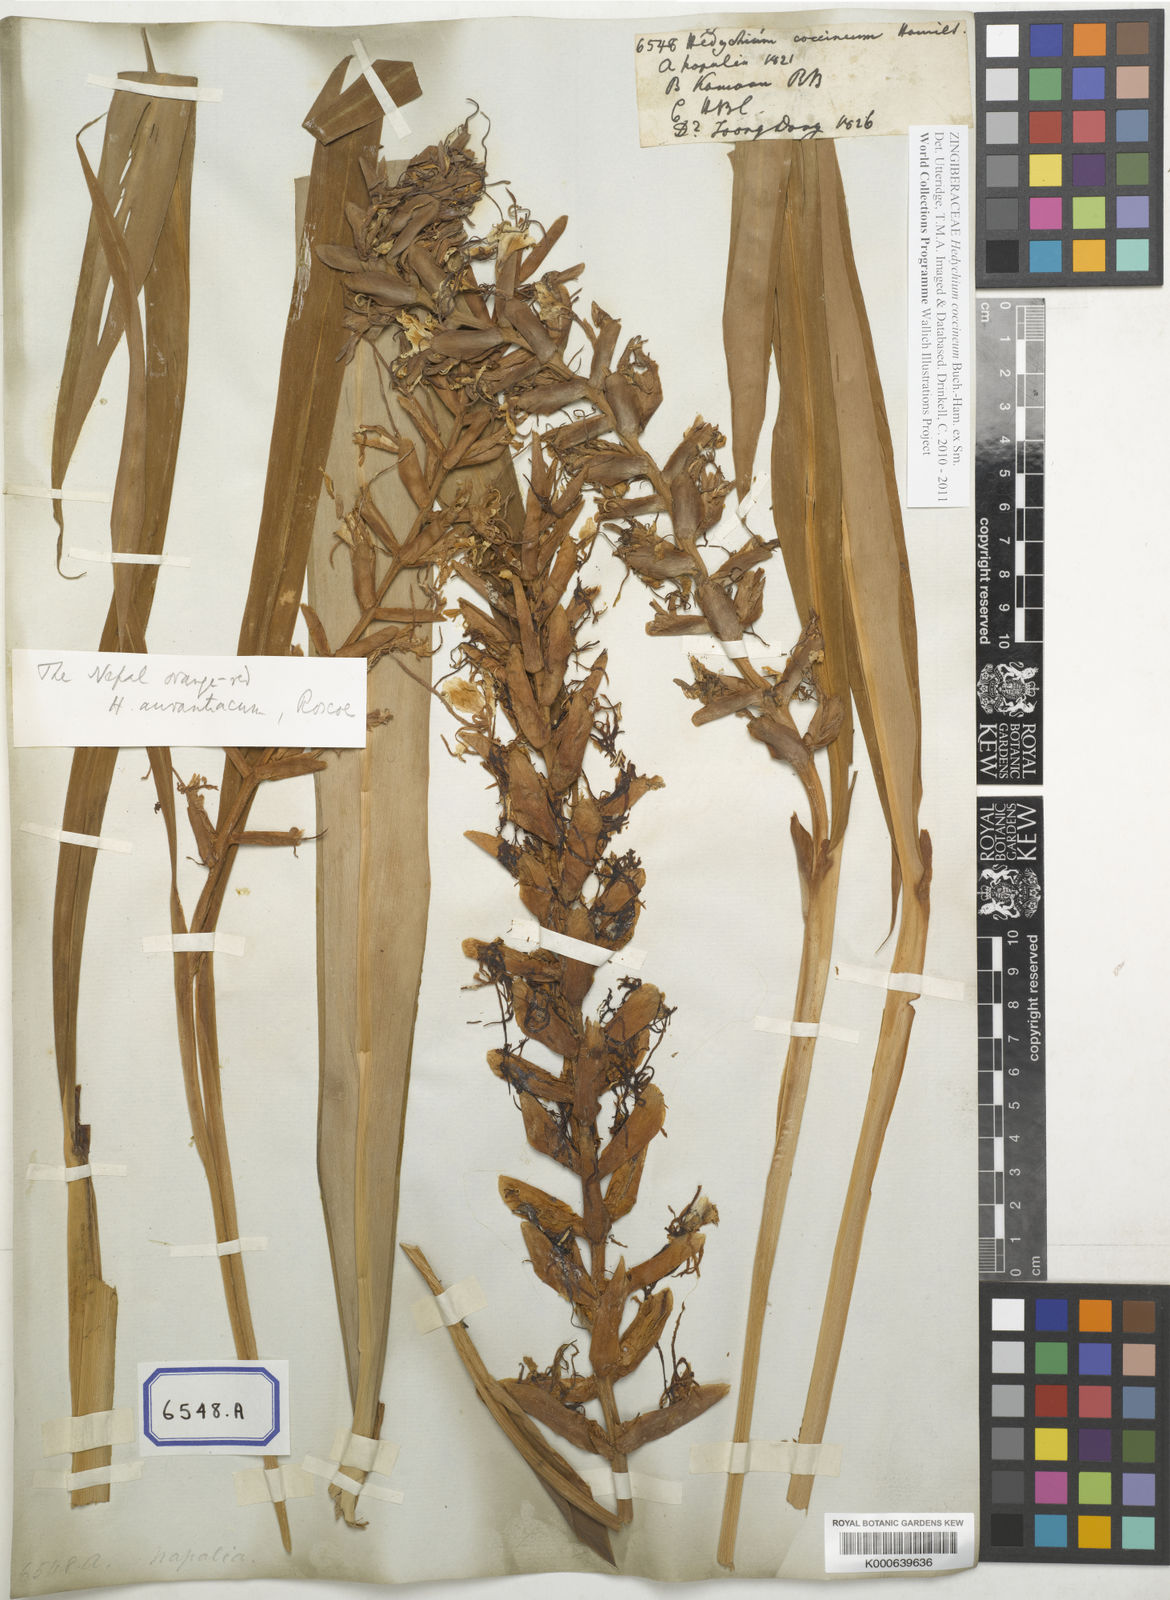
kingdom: Plantae
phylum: Tracheophyta
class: Liliopsida
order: Zingiberales
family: Zingiberaceae
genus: Hedychium
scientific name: Hedychium coccineum
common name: Red ginger-lily
